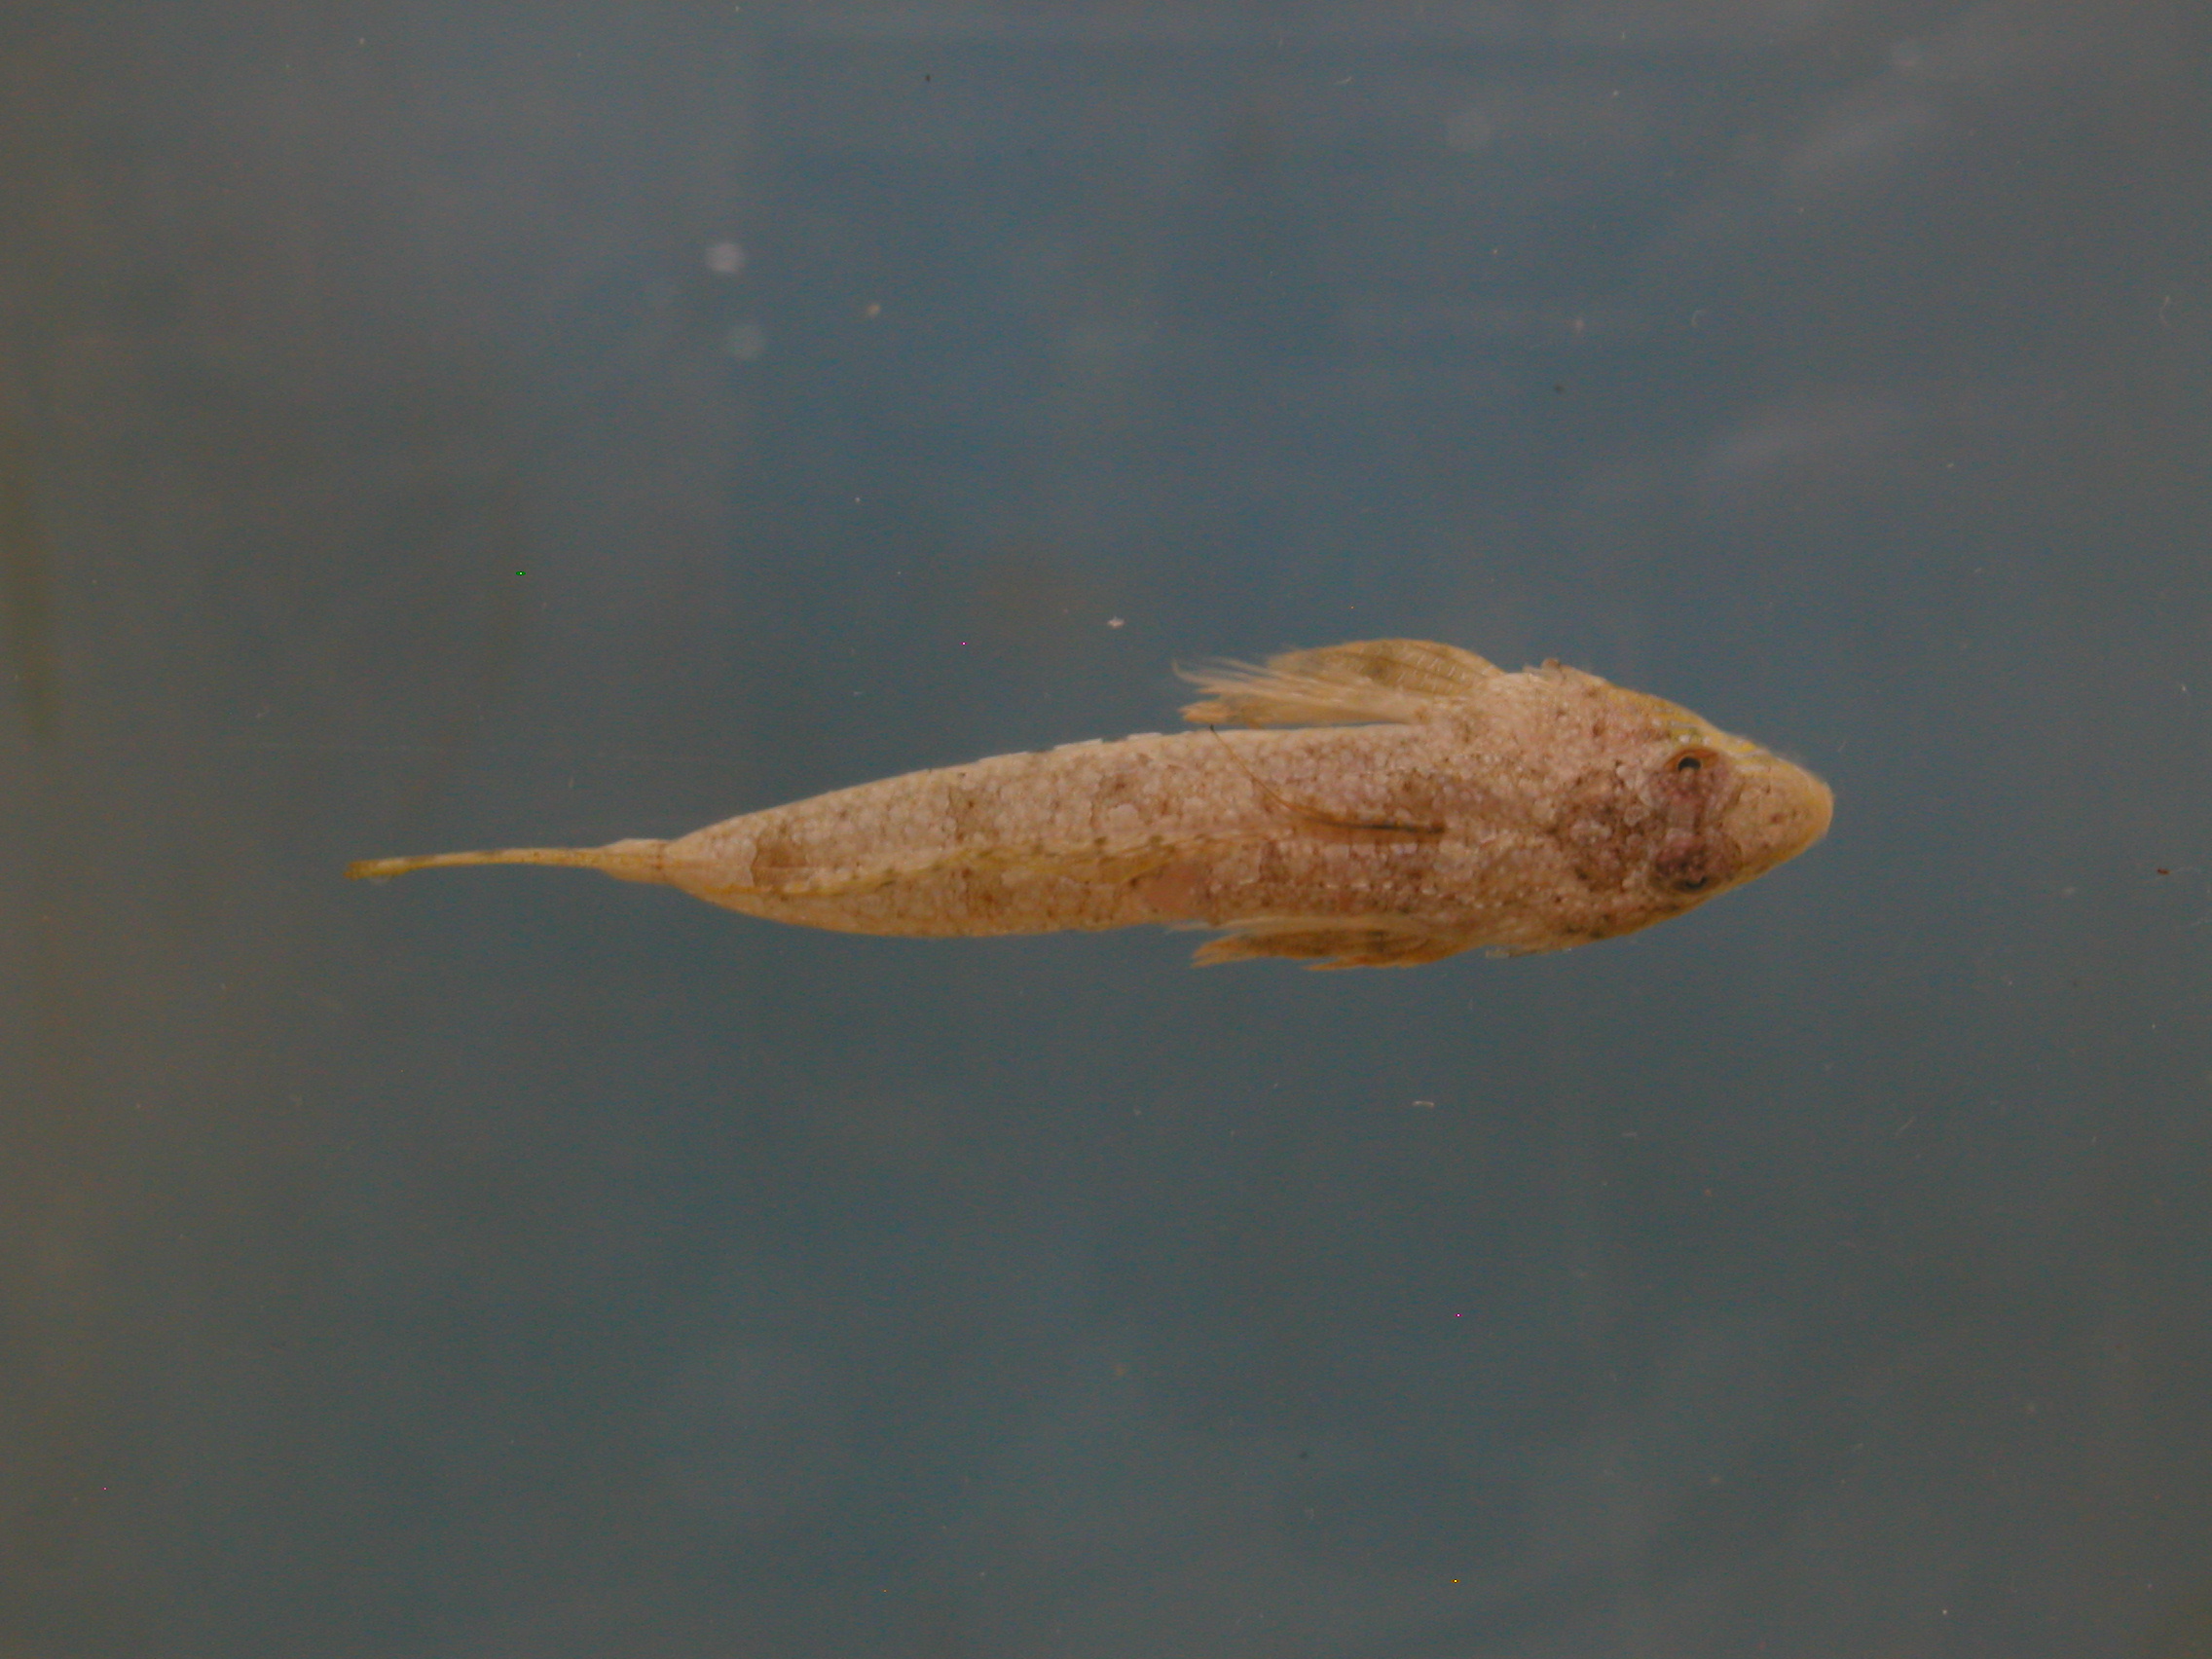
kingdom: Animalia
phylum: Chordata
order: Perciformes
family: Callionymidae
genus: Diplogrammus
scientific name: Diplogrammus infulatus
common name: Indian ocean fold dragonet
